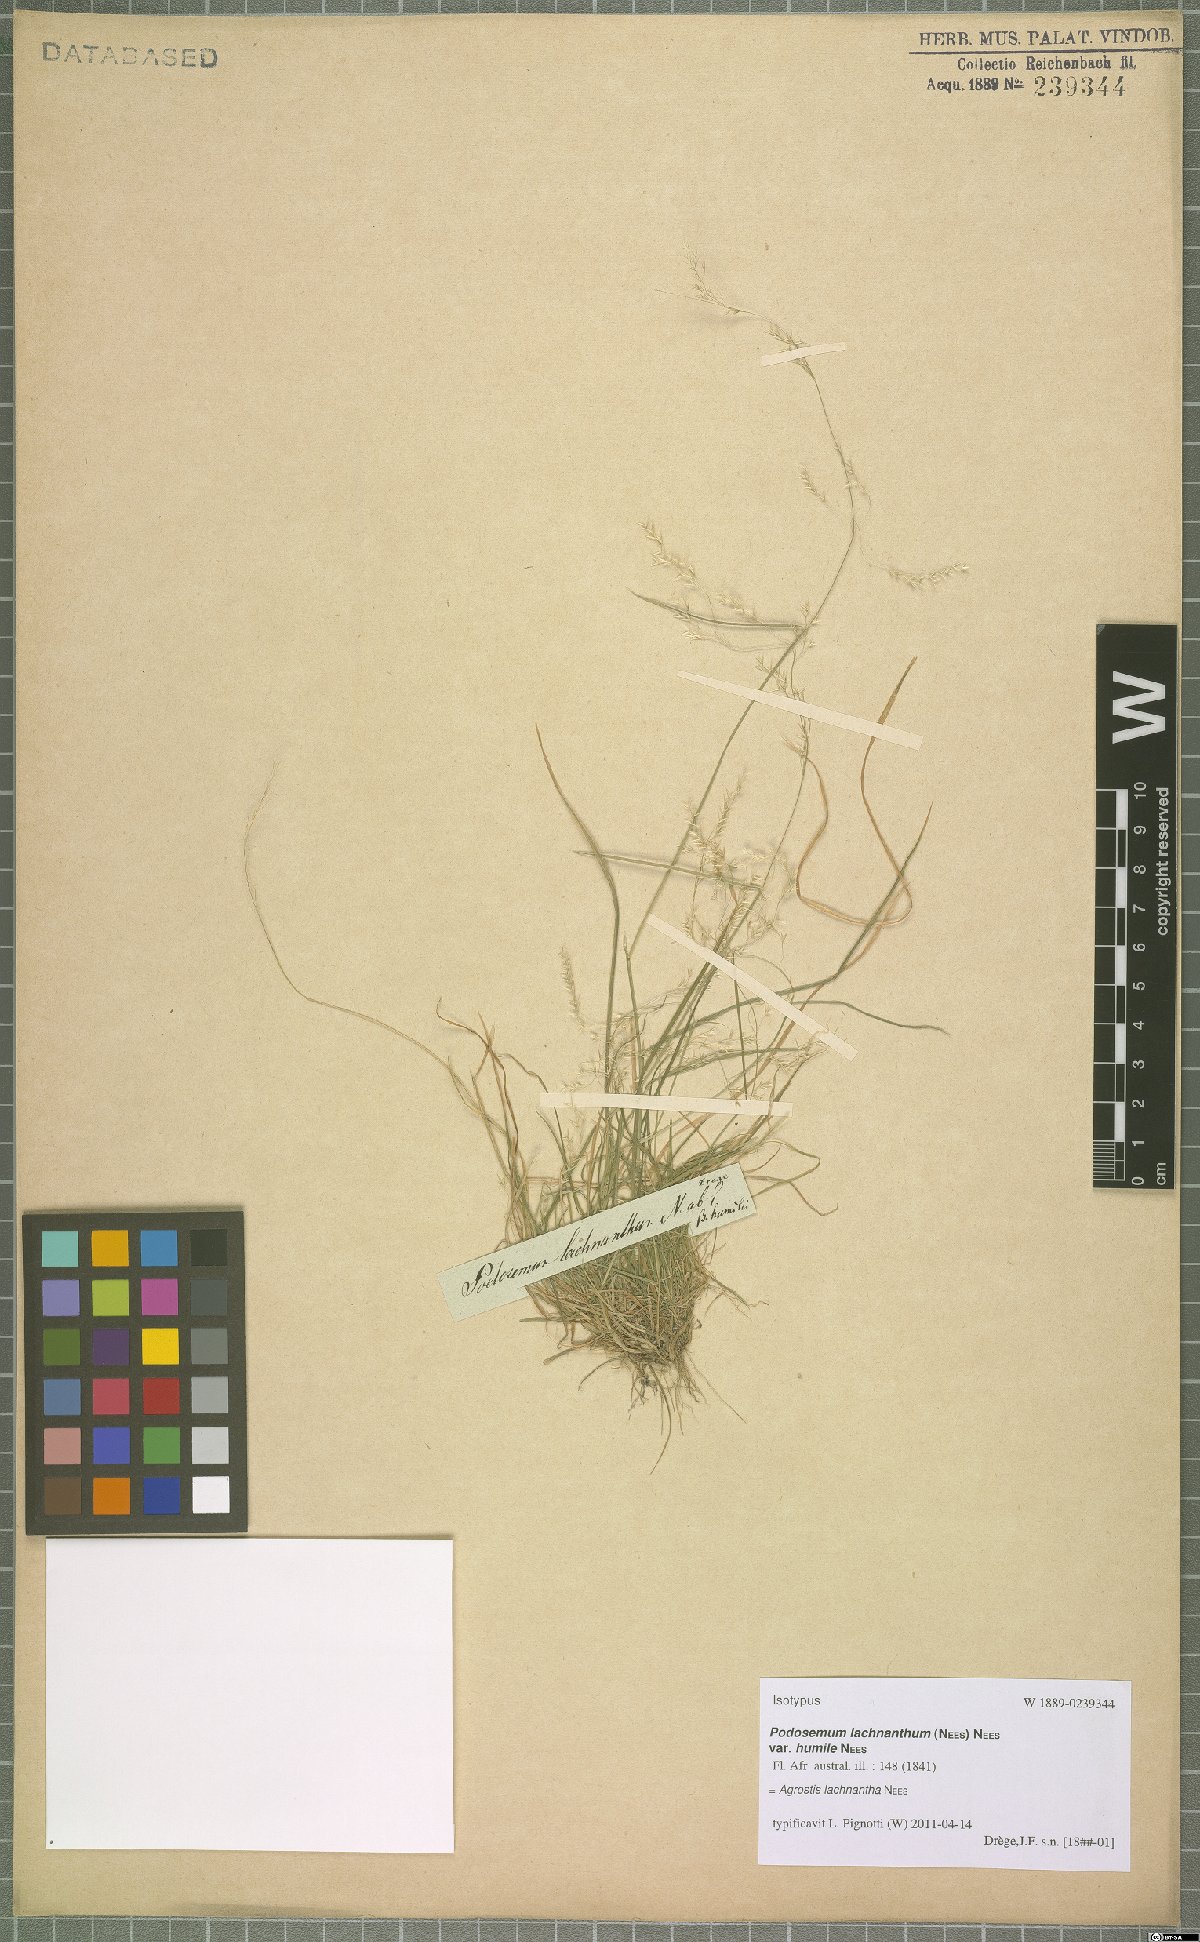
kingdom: Plantae
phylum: Tracheophyta
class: Liliopsida
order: Poales
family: Poaceae
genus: Lachnagrostis
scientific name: Lachnagrostis lachnantha
